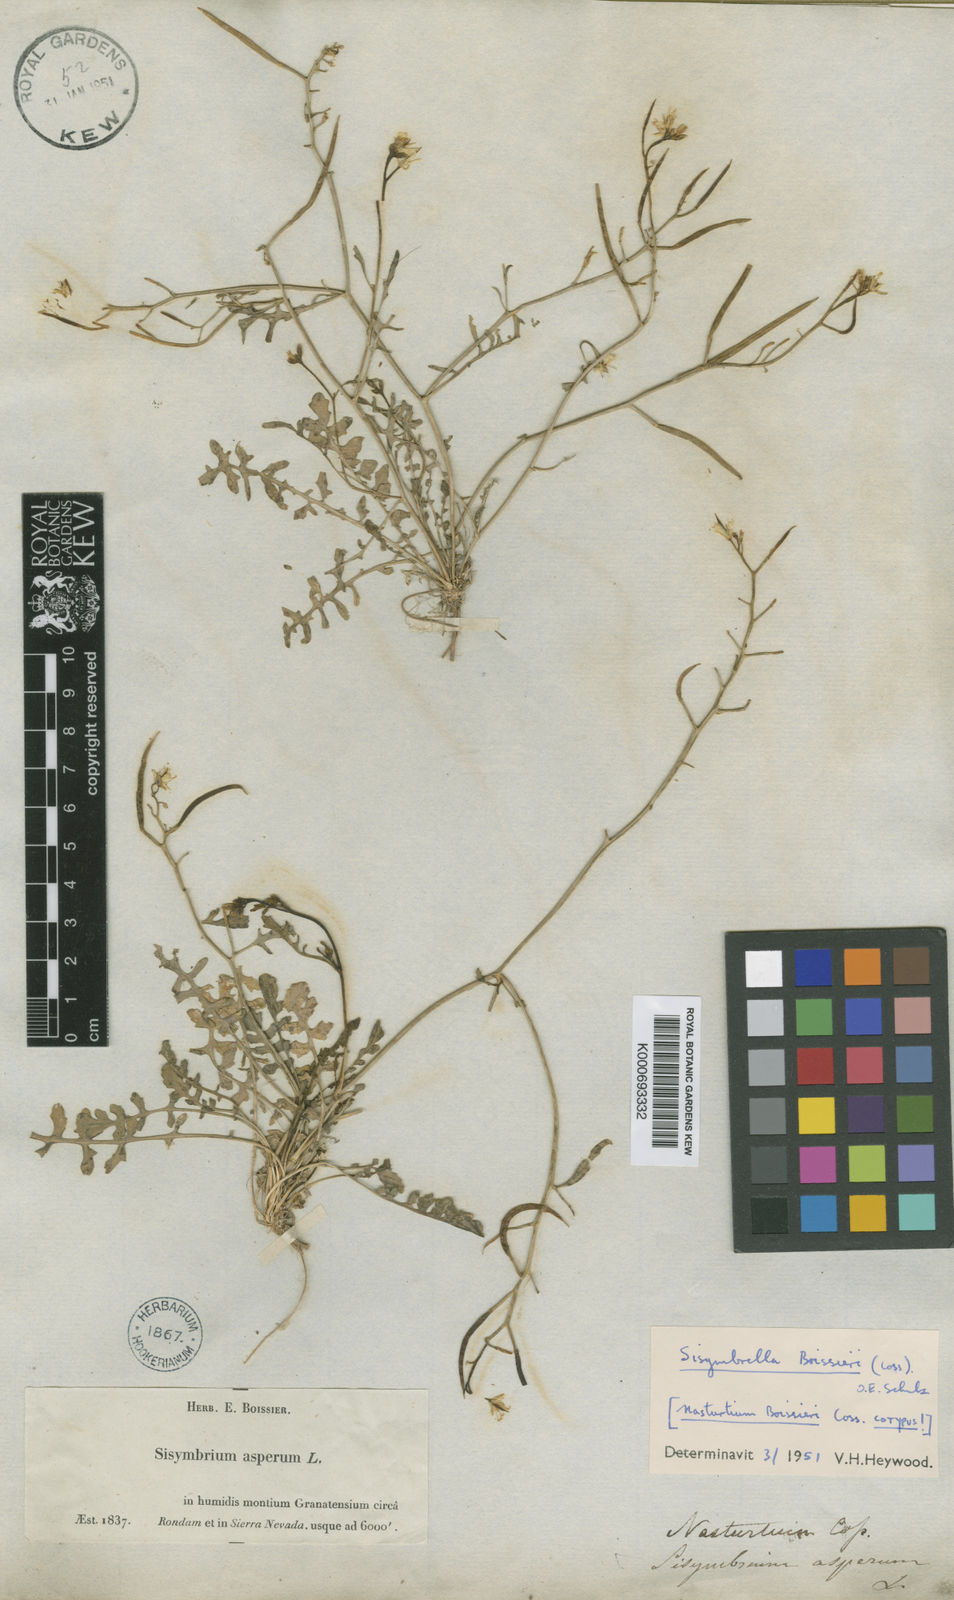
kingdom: Plantae
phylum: Tracheophyta
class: Magnoliopsida
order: Brassicales
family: Brassicaceae
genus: Sisymbrella
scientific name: Sisymbrella aspera
